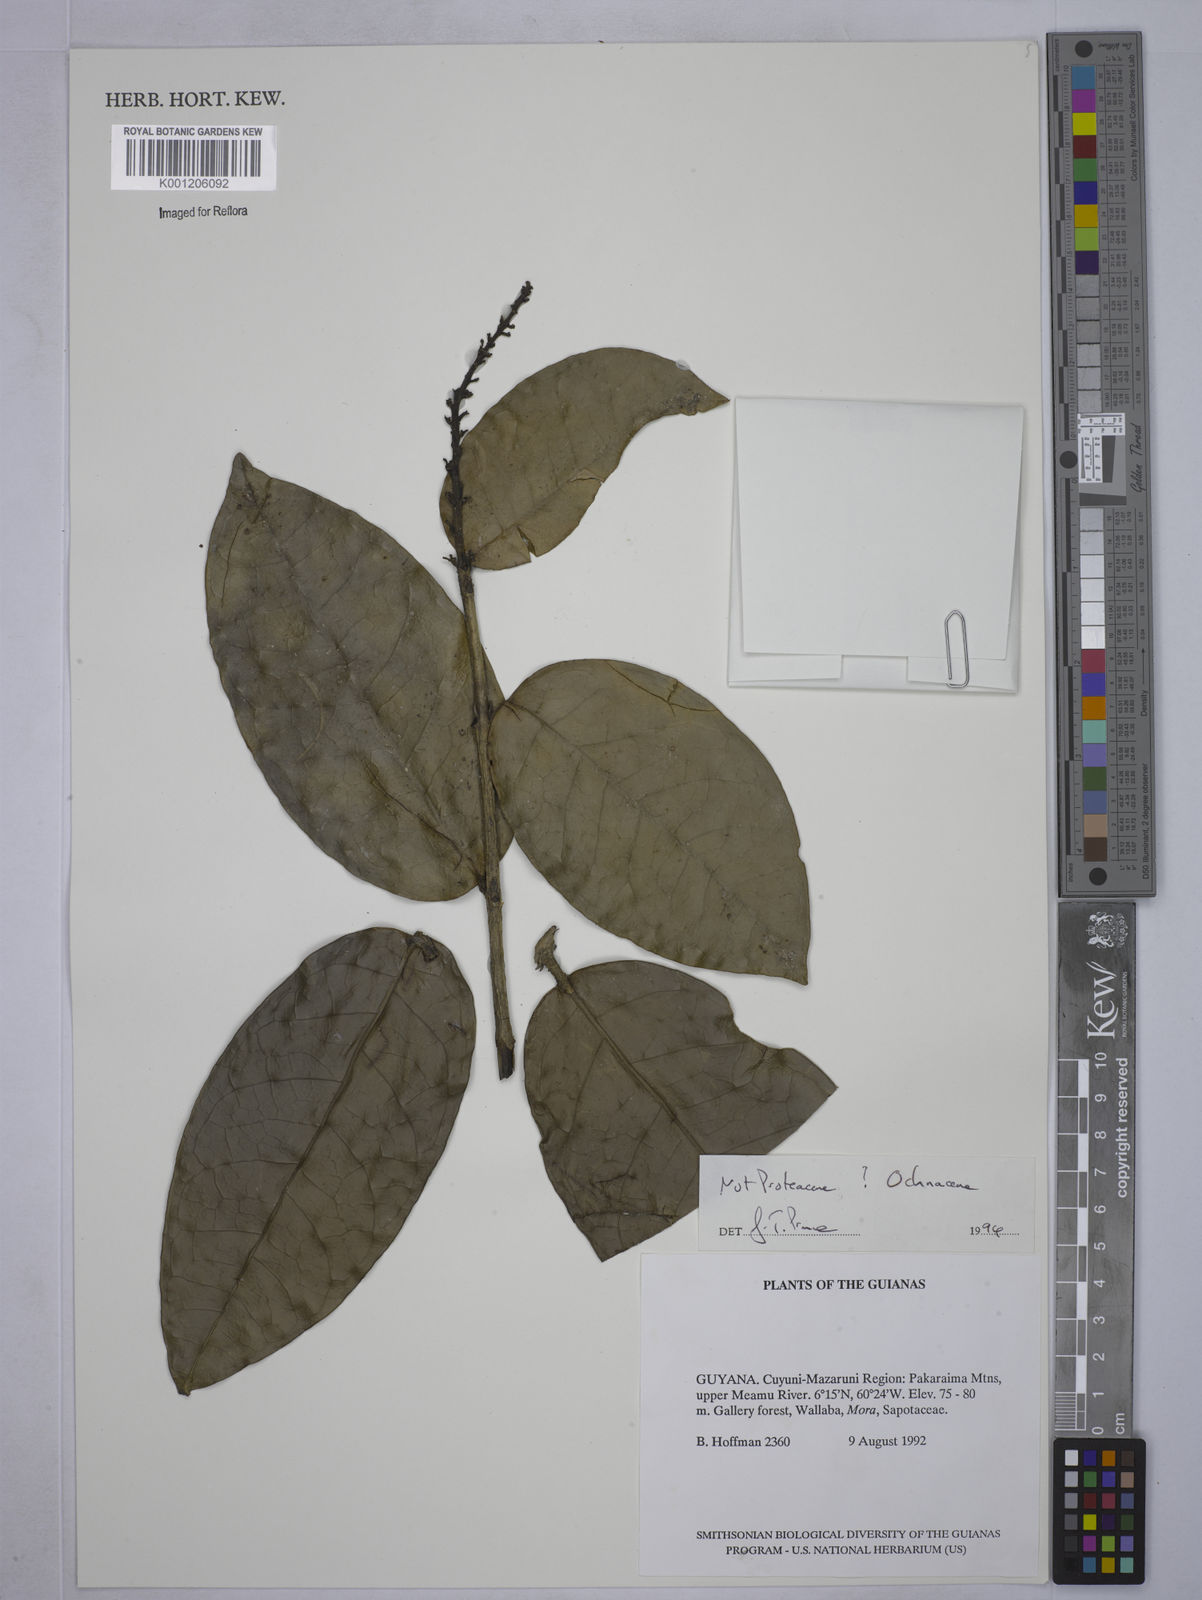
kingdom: Plantae
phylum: Tracheophyta
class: Magnoliopsida
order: Malpighiales
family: Ochnaceae
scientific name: Ochnaceae
